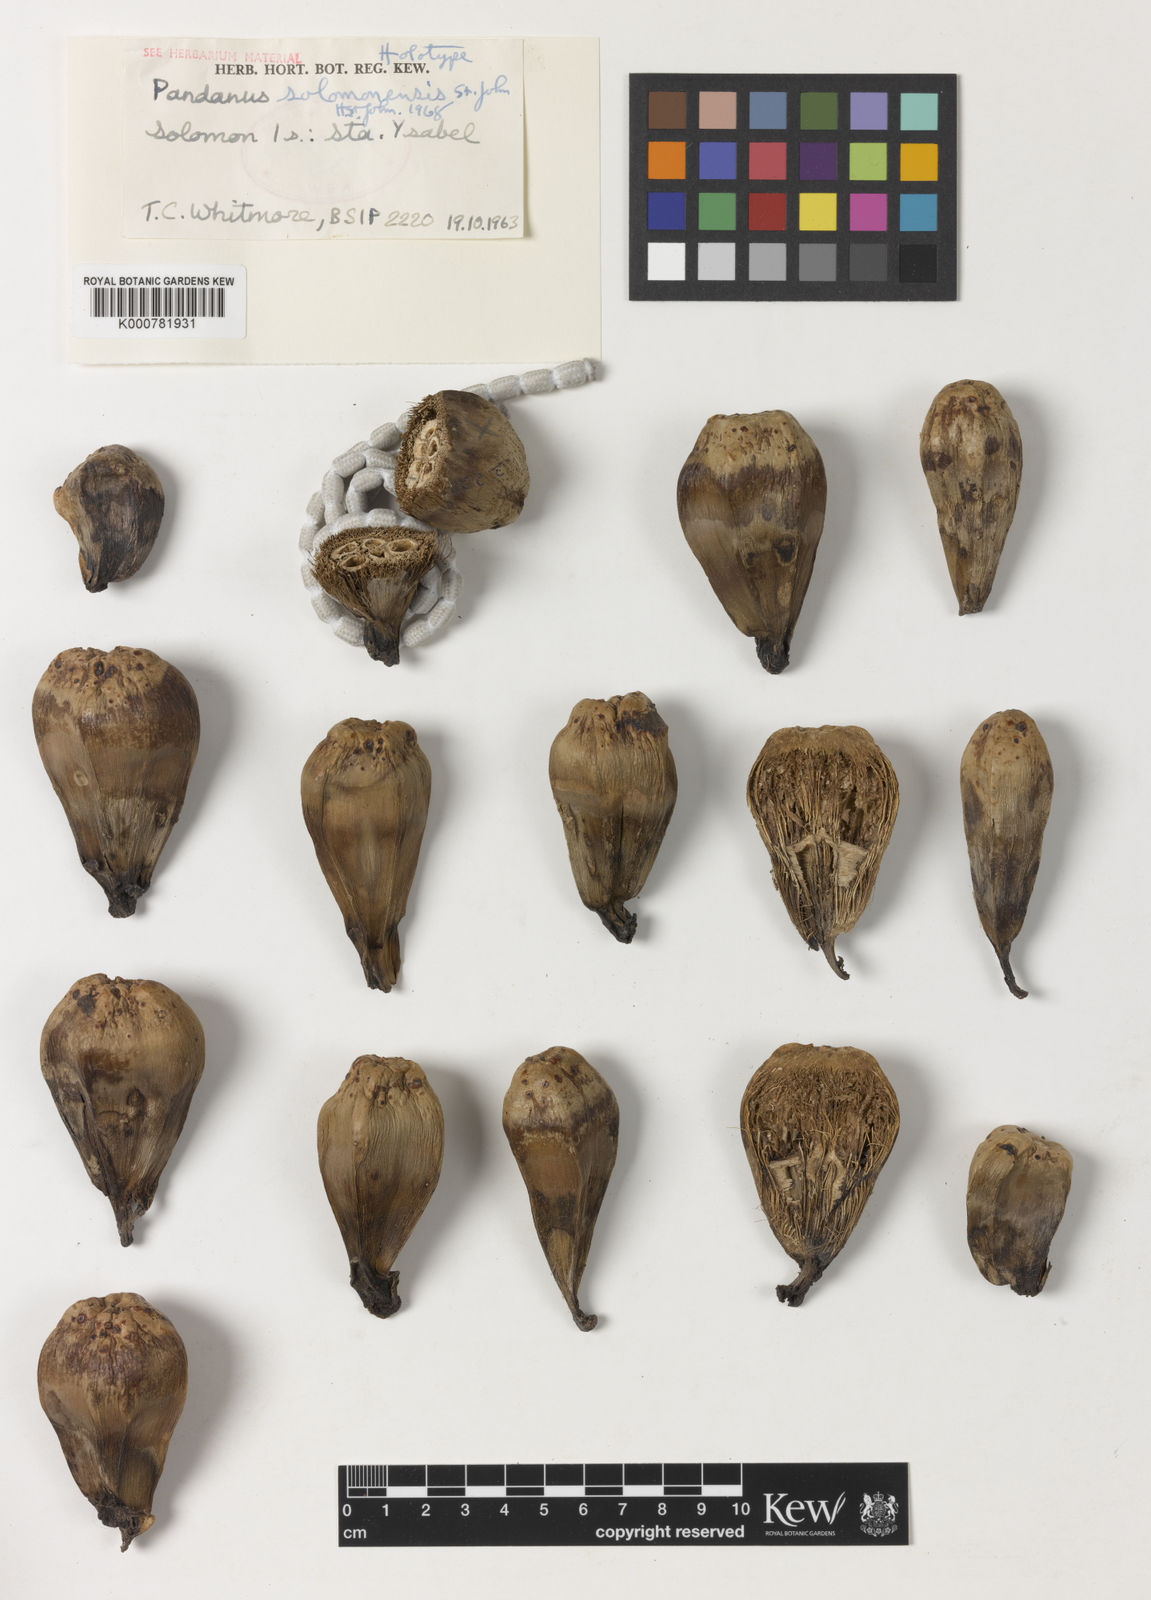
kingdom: Plantae
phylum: Tracheophyta
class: Liliopsida
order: Pandanales
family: Pandanaceae
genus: Pandanus
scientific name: Pandanus
